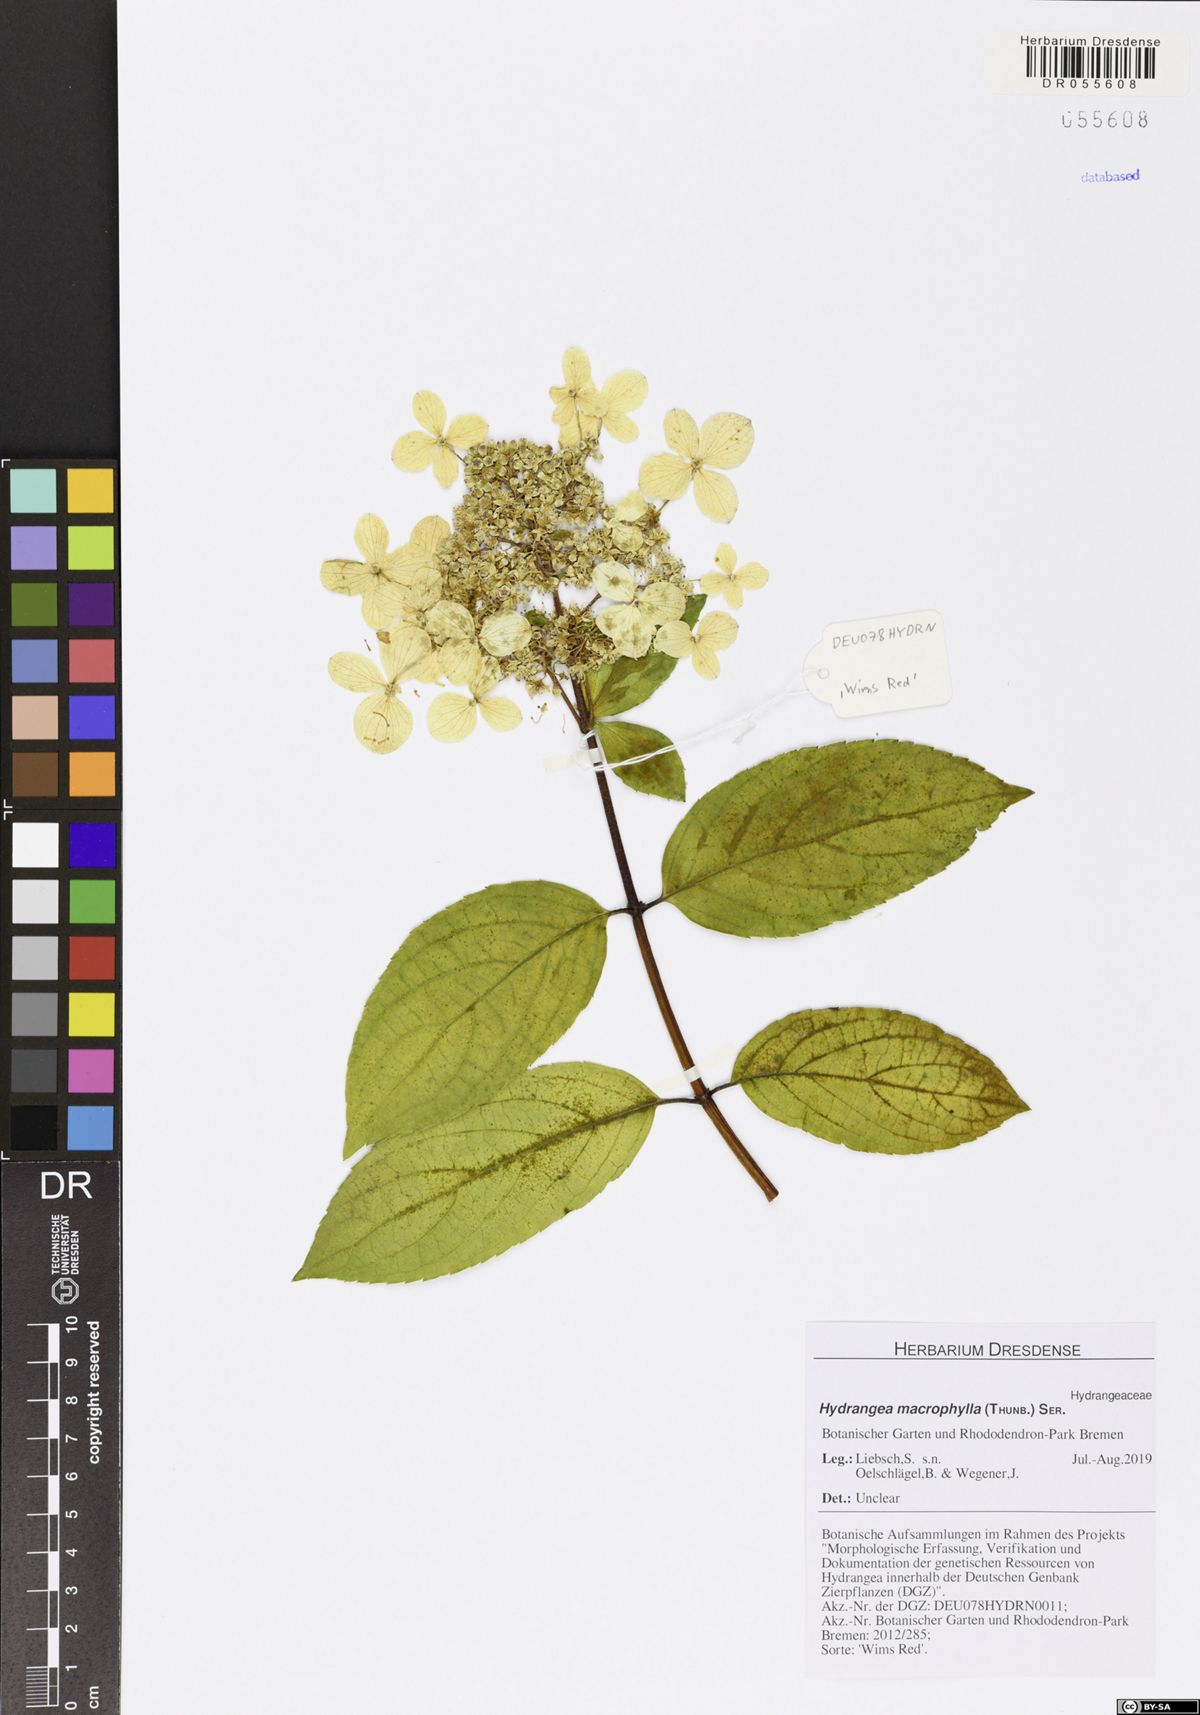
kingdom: Plantae
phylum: Tracheophyta
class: Magnoliopsida
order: Cornales
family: Hydrangeaceae
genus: Hydrangea
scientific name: Hydrangea macrophylla
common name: Hydrangea
